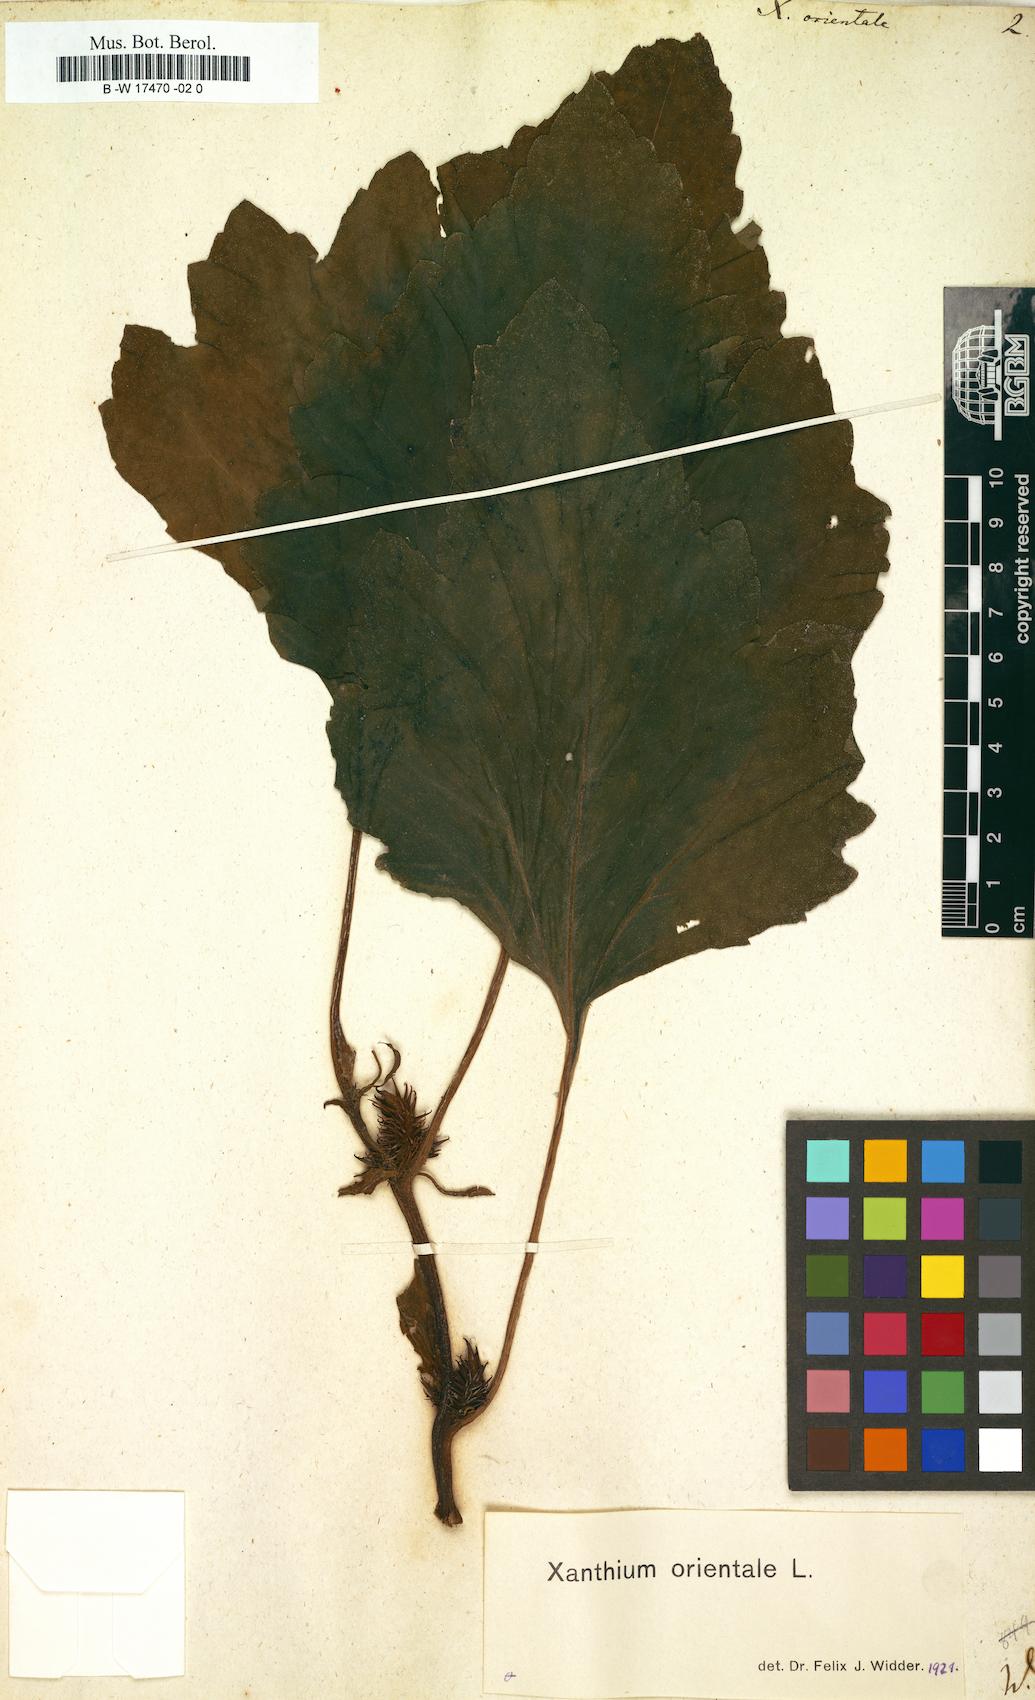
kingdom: Plantae
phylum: Tracheophyta
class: Magnoliopsida
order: Asterales
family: Asteraceae
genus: Xanthium
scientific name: Xanthium orientale
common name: Californian burr
